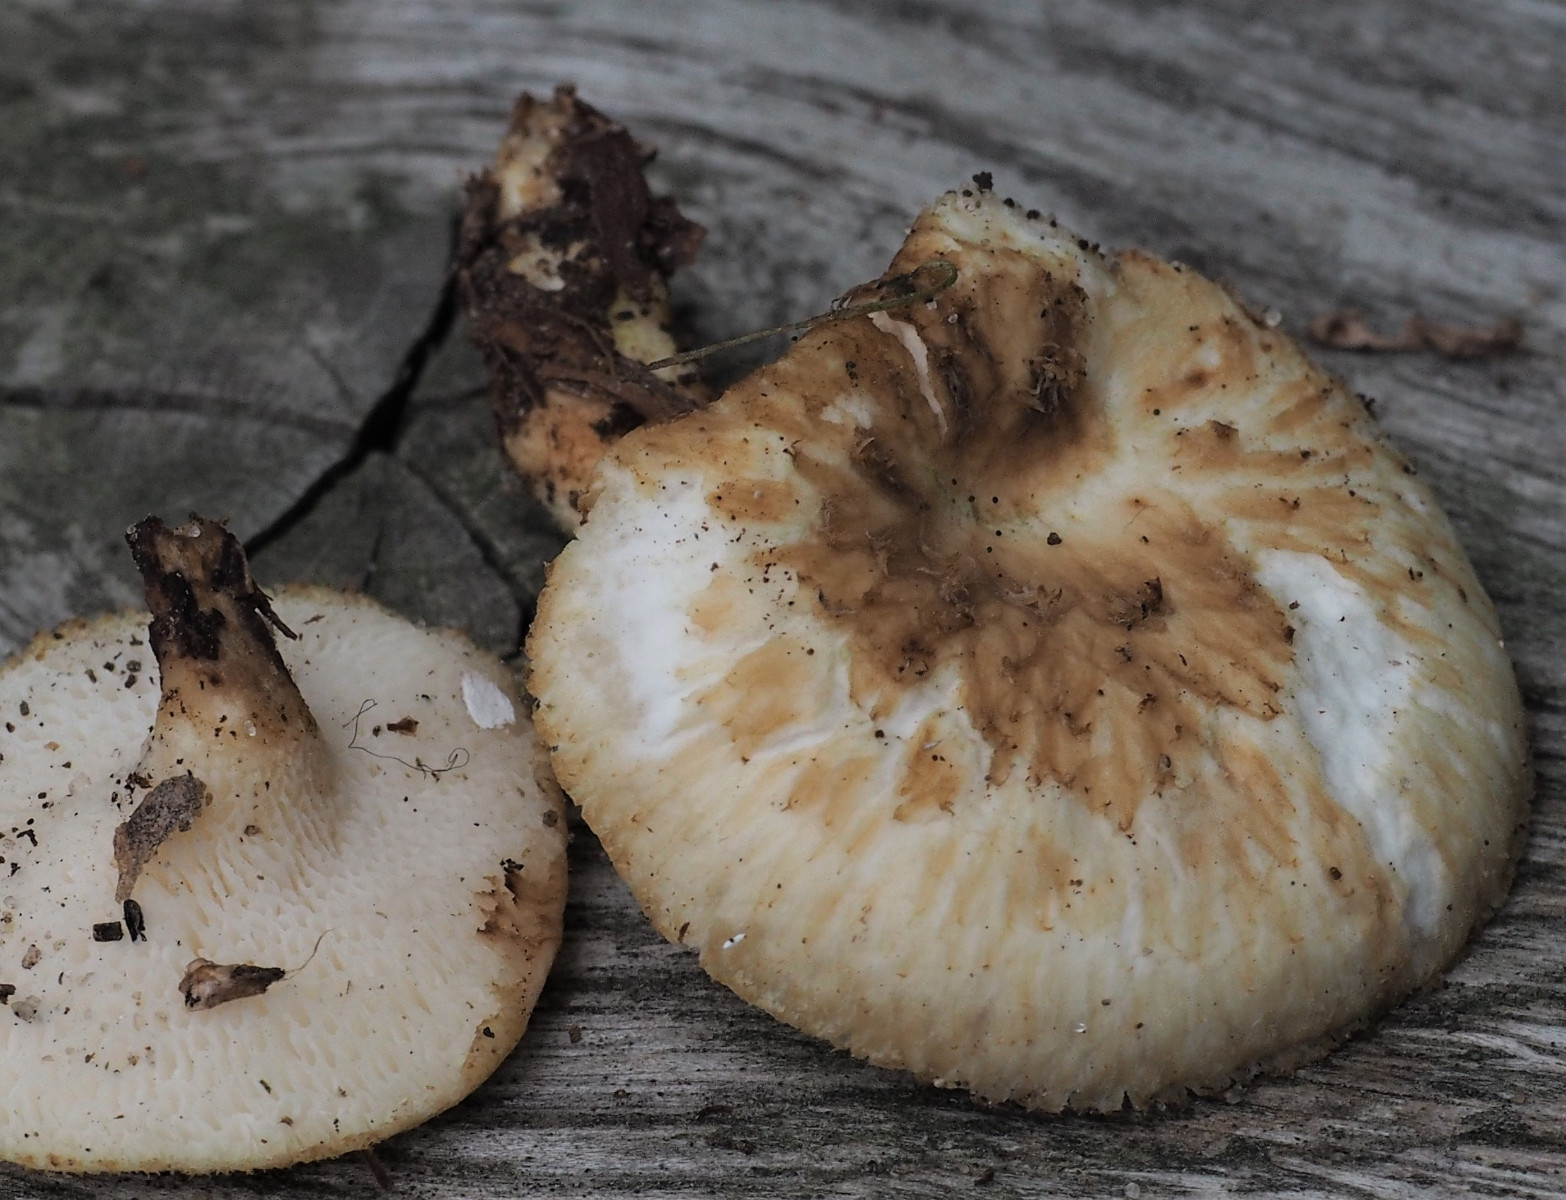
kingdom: Fungi
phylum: Basidiomycota
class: Agaricomycetes
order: Polyporales
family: Polyporaceae
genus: Polyporus
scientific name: Polyporus tuberaster
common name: knoldet stilkporesvamp
